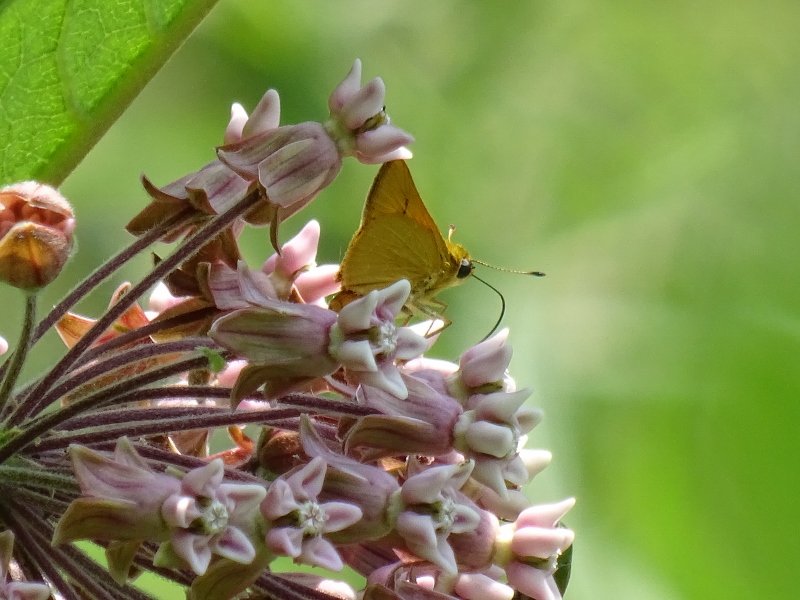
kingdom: Animalia
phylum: Arthropoda
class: Insecta
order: Lepidoptera
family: Hesperiidae
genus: Atrytone
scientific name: Atrytone delaware
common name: Delaware Skipper
